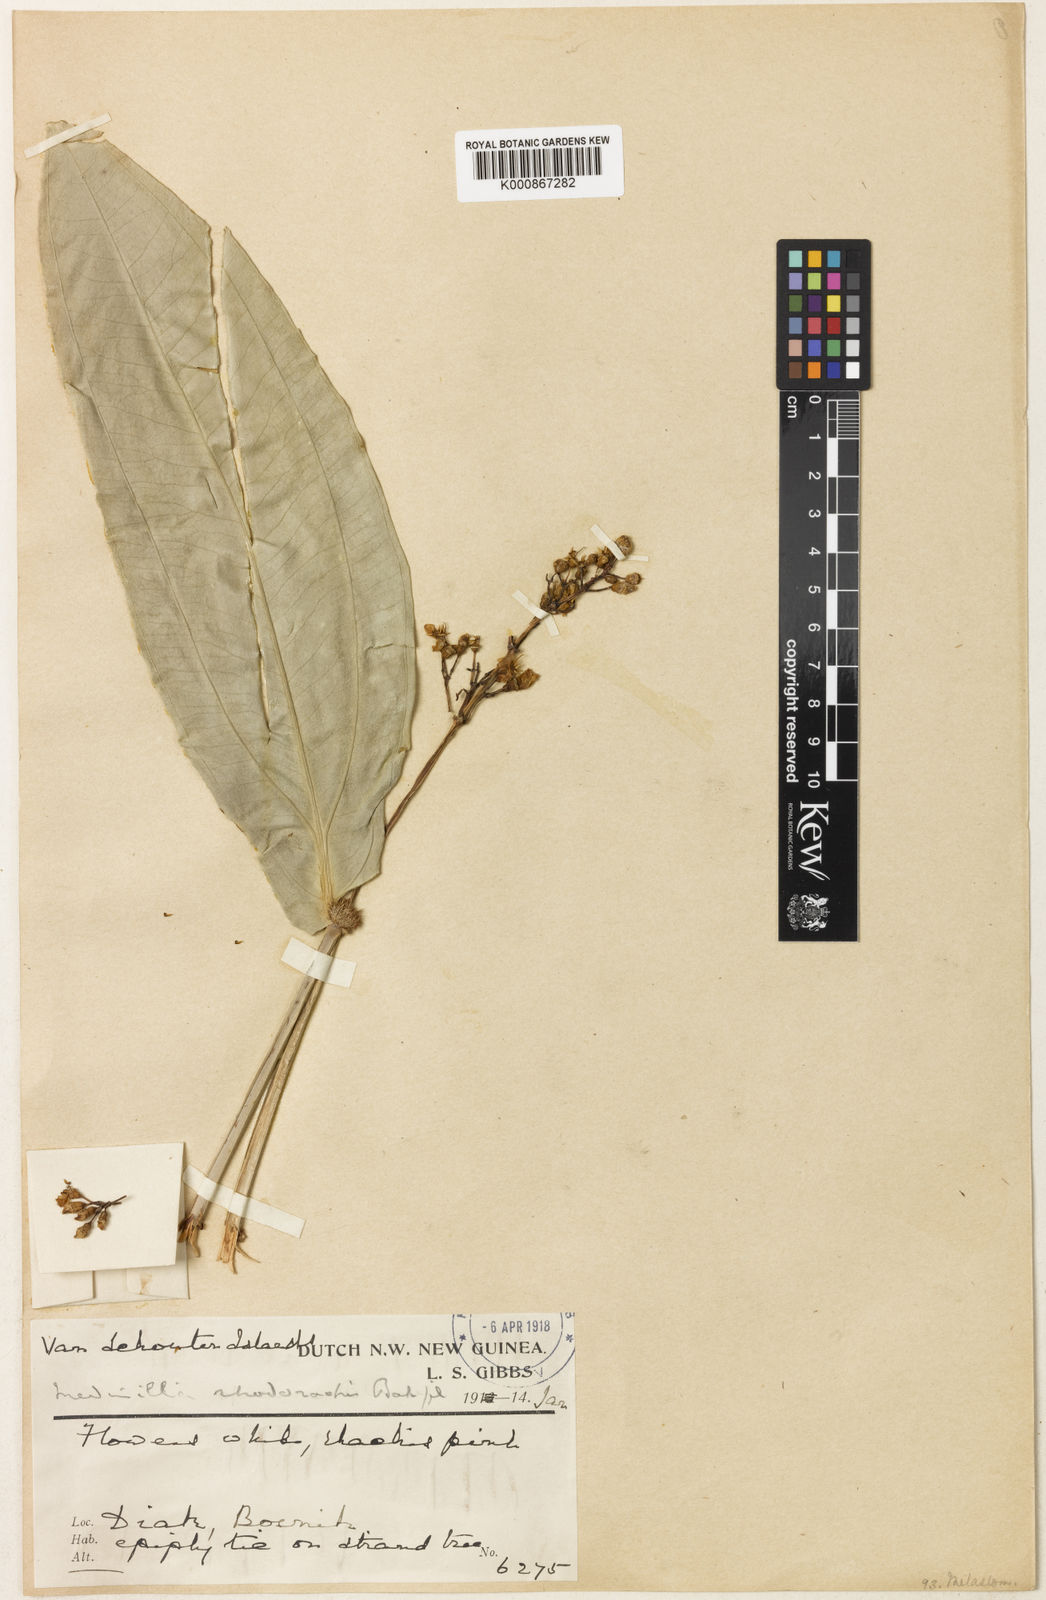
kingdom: Plantae
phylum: Tracheophyta
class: Magnoliopsida
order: Myrtales
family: Melastomataceae
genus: Medinilla
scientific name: Medinilla rhodorhachis
